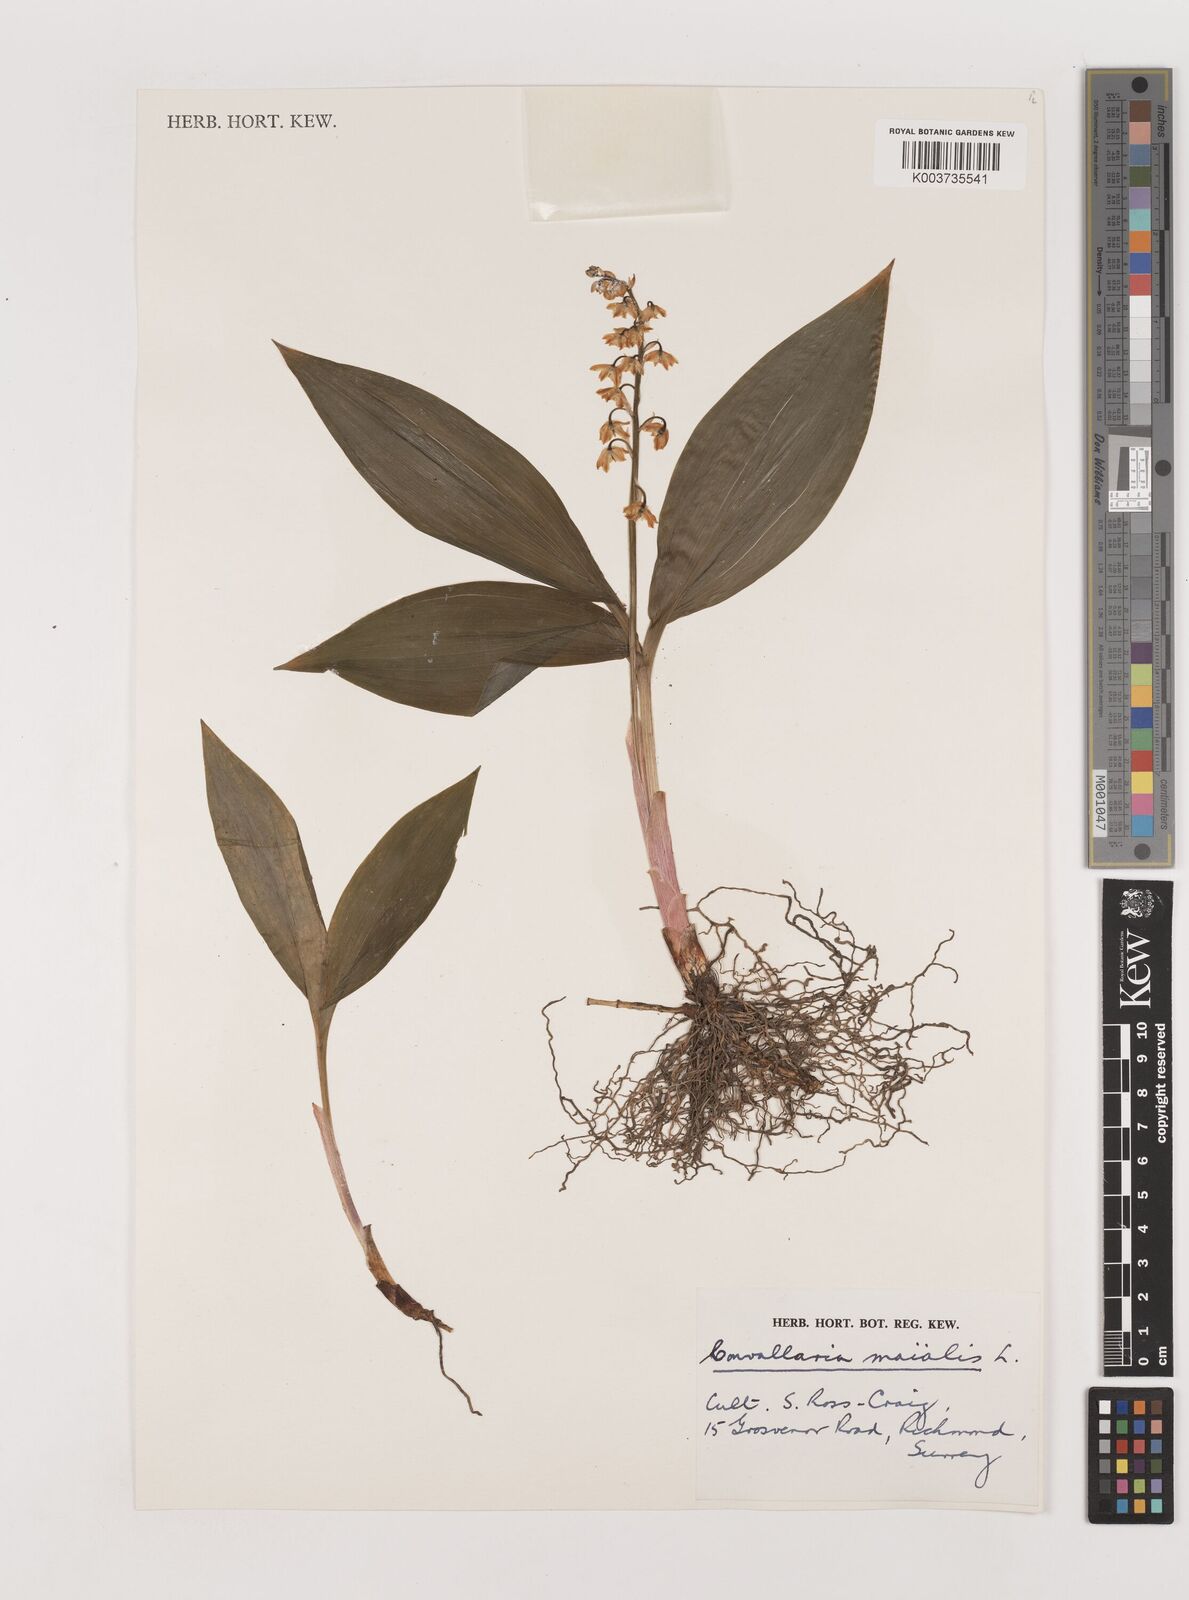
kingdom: Plantae
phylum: Tracheophyta
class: Liliopsida
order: Asparagales
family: Asparagaceae
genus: Convallaria
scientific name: Convallaria majalis
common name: Lily-of-the-valley
